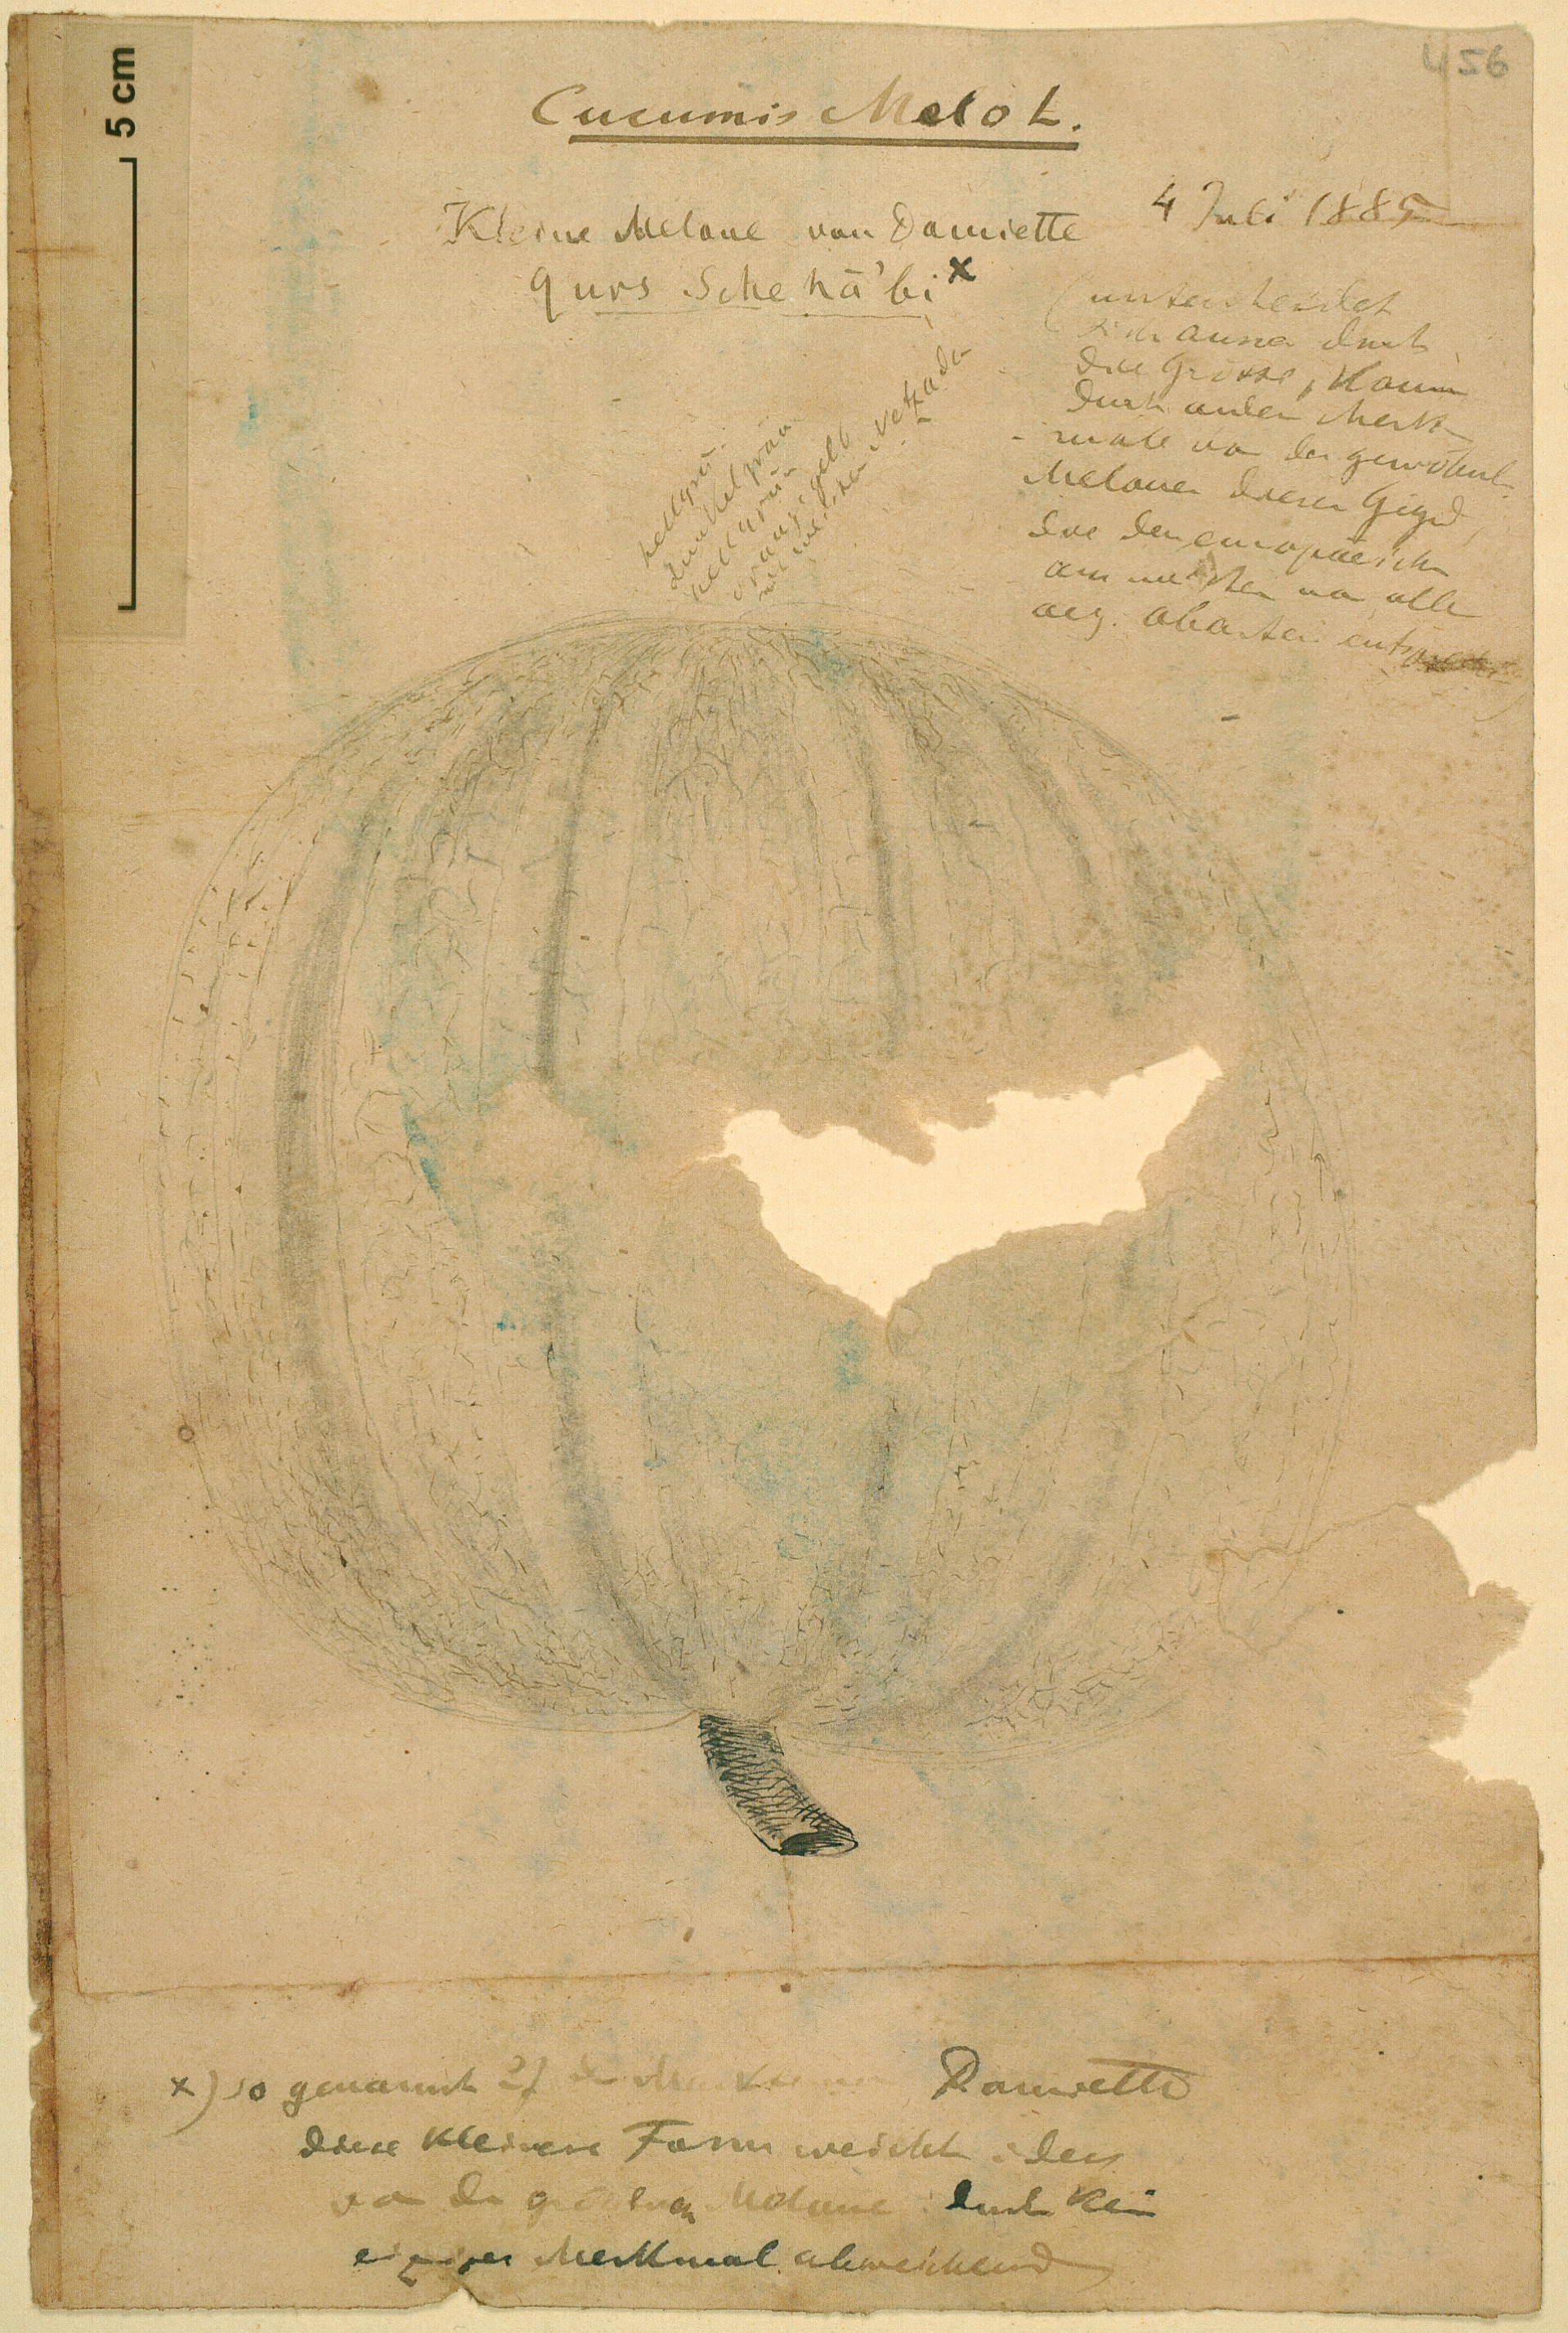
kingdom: Plantae
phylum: Tracheophyta
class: Magnoliopsida
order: Cucurbitales
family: Cucurbitaceae
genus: Cucumis
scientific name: Cucumis melo
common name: Melon
